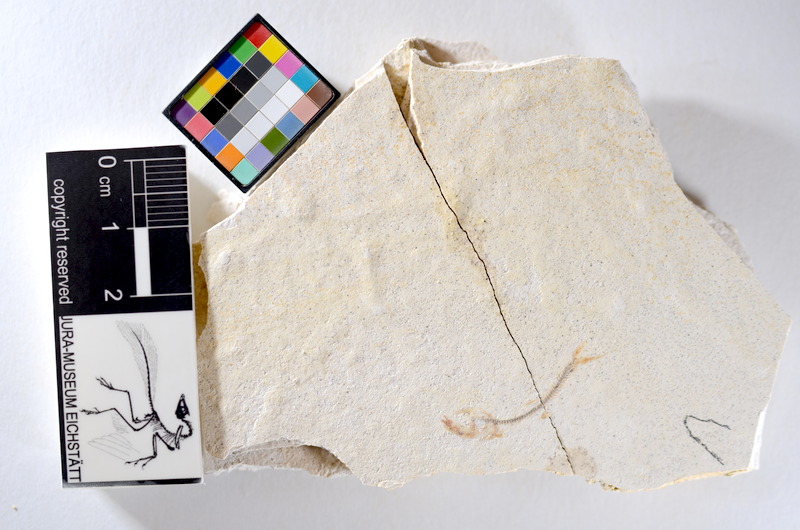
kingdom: Animalia
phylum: Chordata
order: Salmoniformes
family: Orthogonikleithridae
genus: Orthogonikleithrus
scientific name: Orthogonikleithrus hoelli
